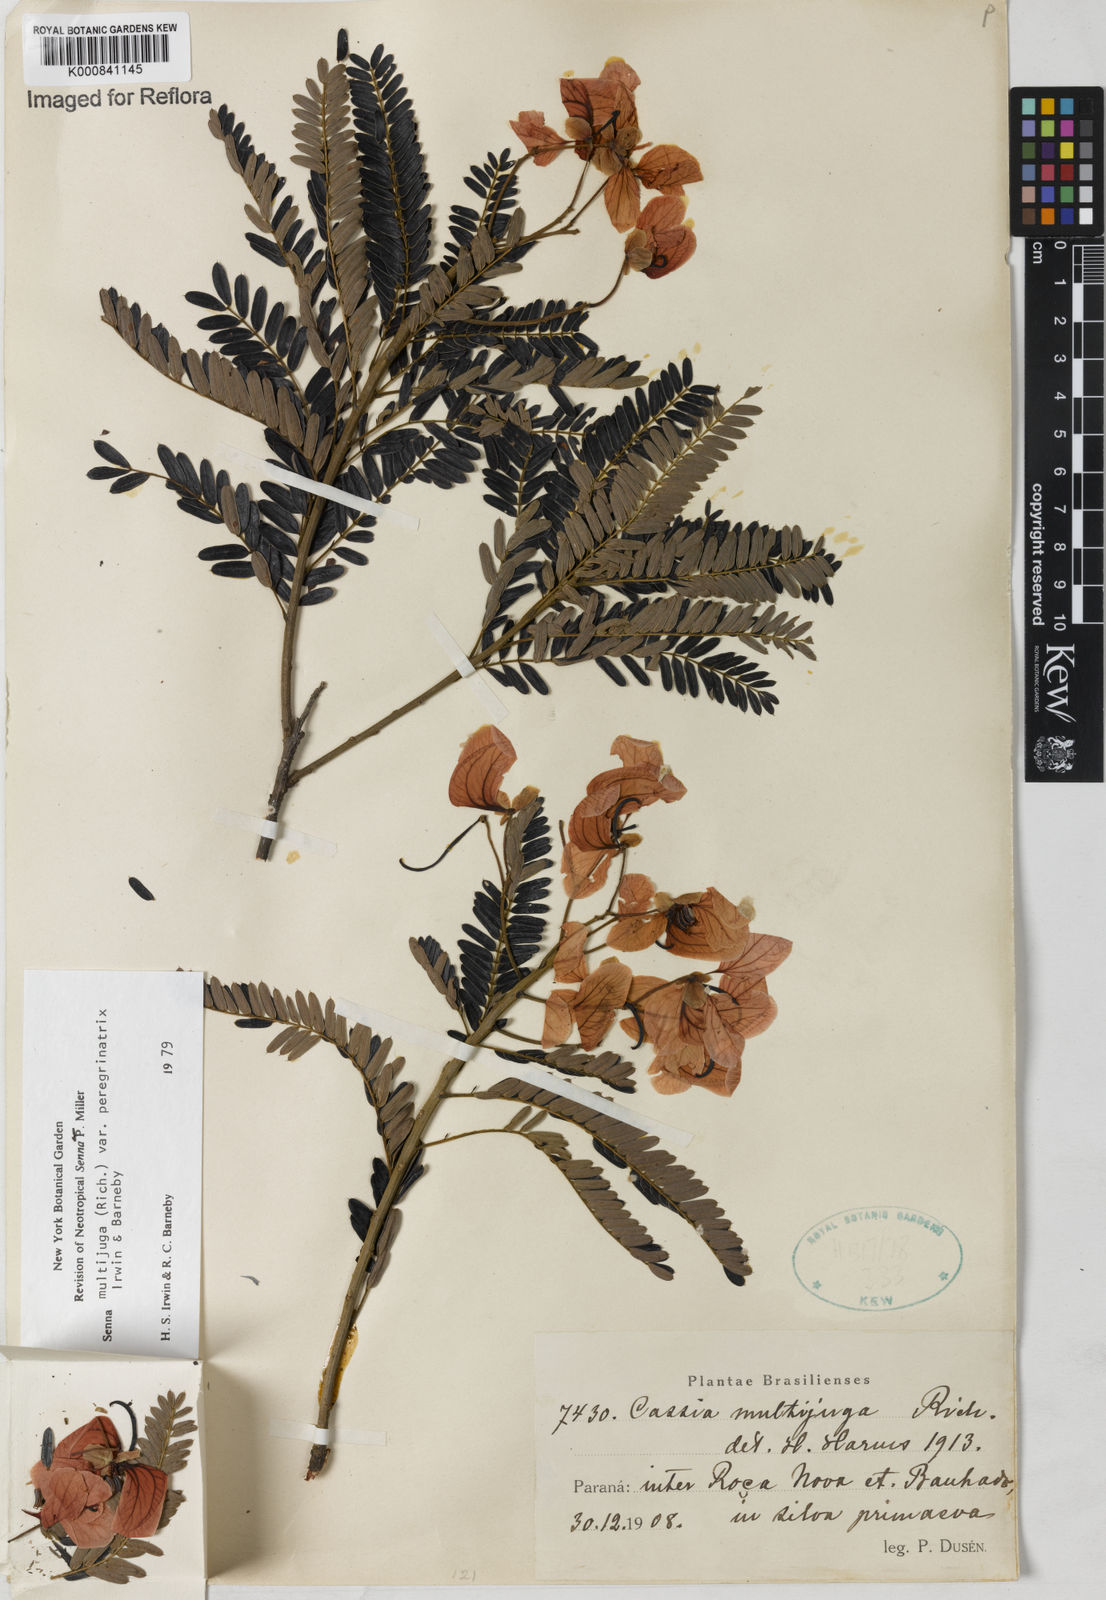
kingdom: Plantae
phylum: Tracheophyta
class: Magnoliopsida
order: Fabales
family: Fabaceae
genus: Senna
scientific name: Senna multijuga
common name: False sicklepod
